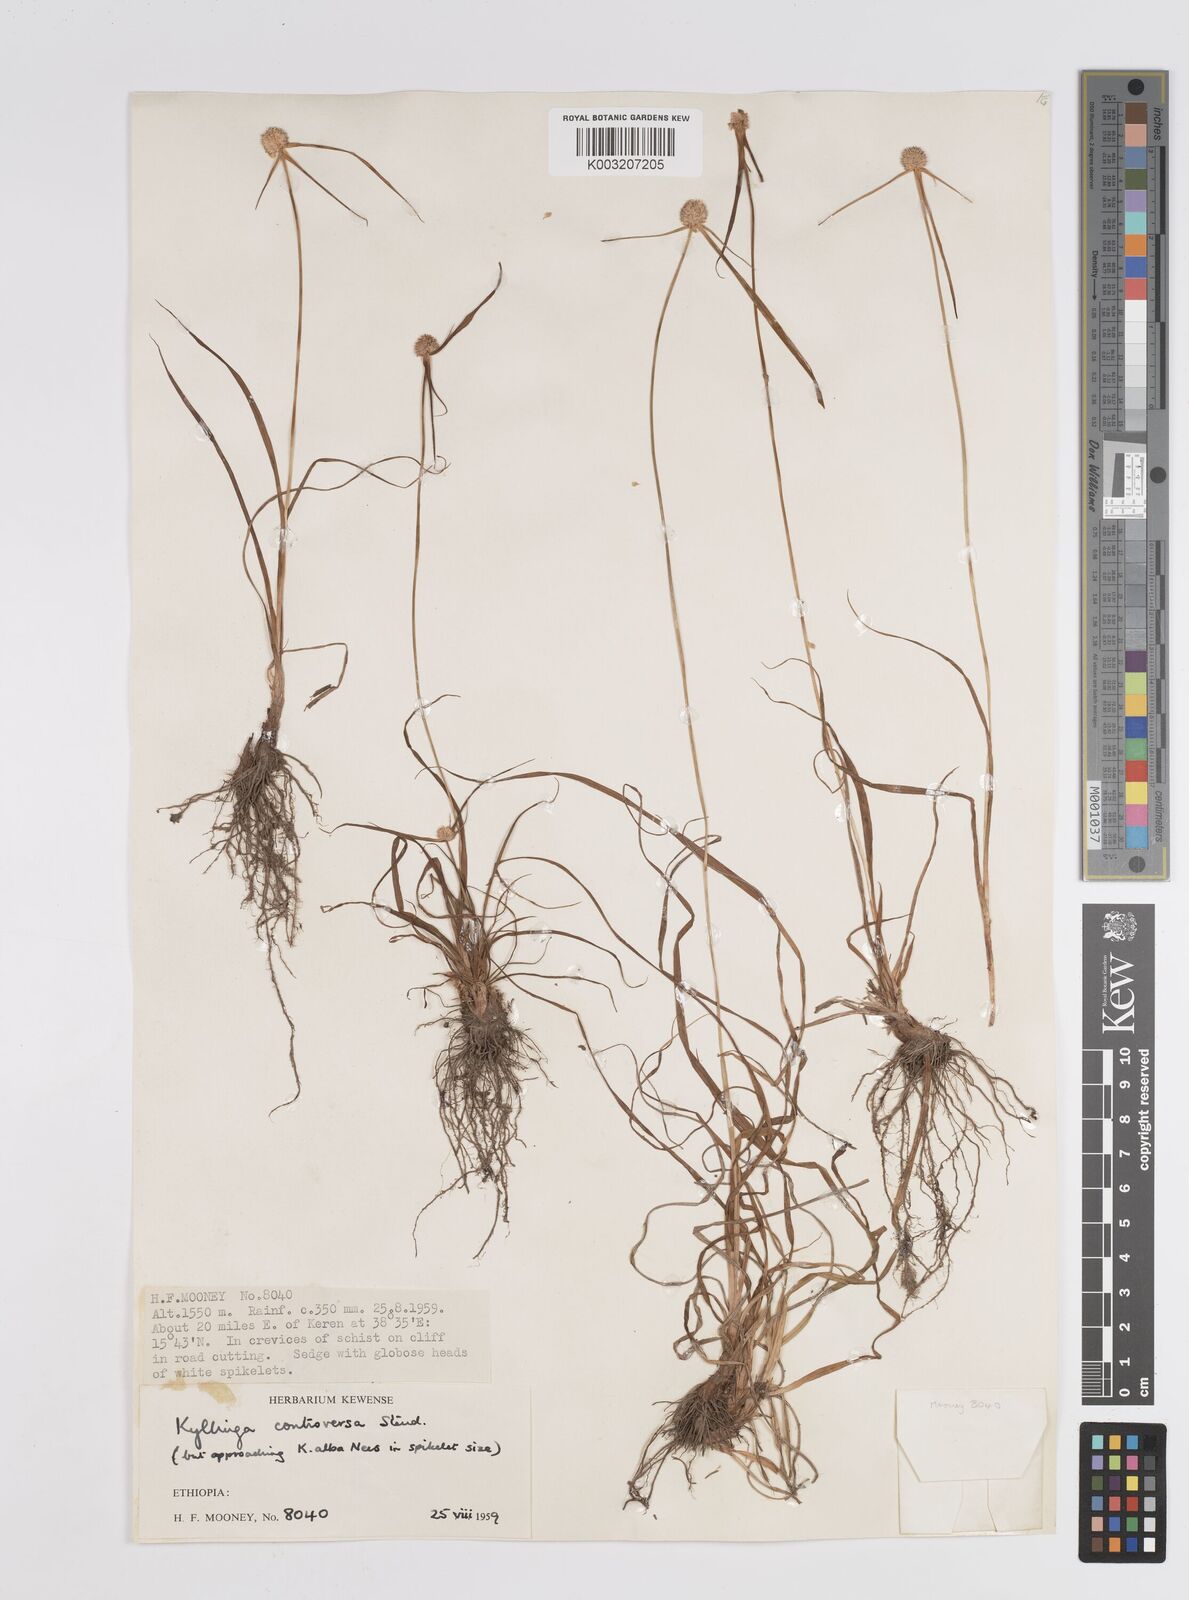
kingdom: Plantae
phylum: Tracheophyta
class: Liliopsida
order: Poales
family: Cyperaceae
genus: Cyperus
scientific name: Cyperus controversus
